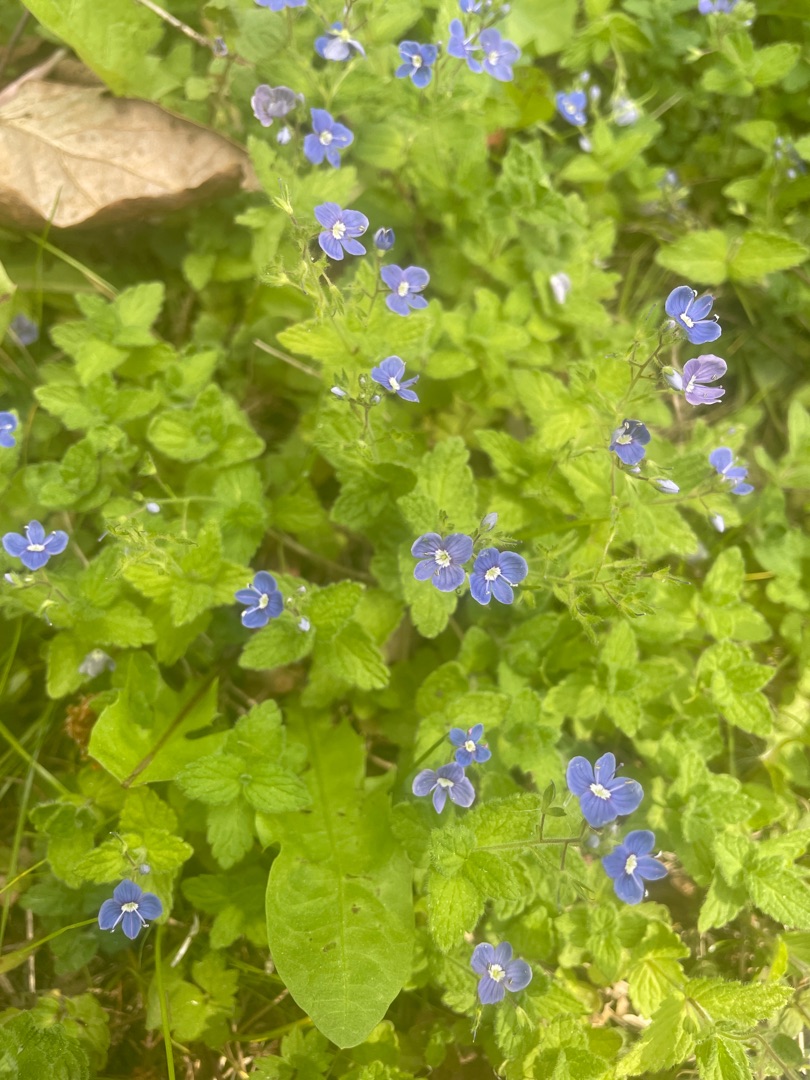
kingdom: Plantae
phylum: Tracheophyta
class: Magnoliopsida
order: Lamiales
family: Plantaginaceae
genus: Veronica
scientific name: Veronica chamaedrys
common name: Tveskægget ærenpris
